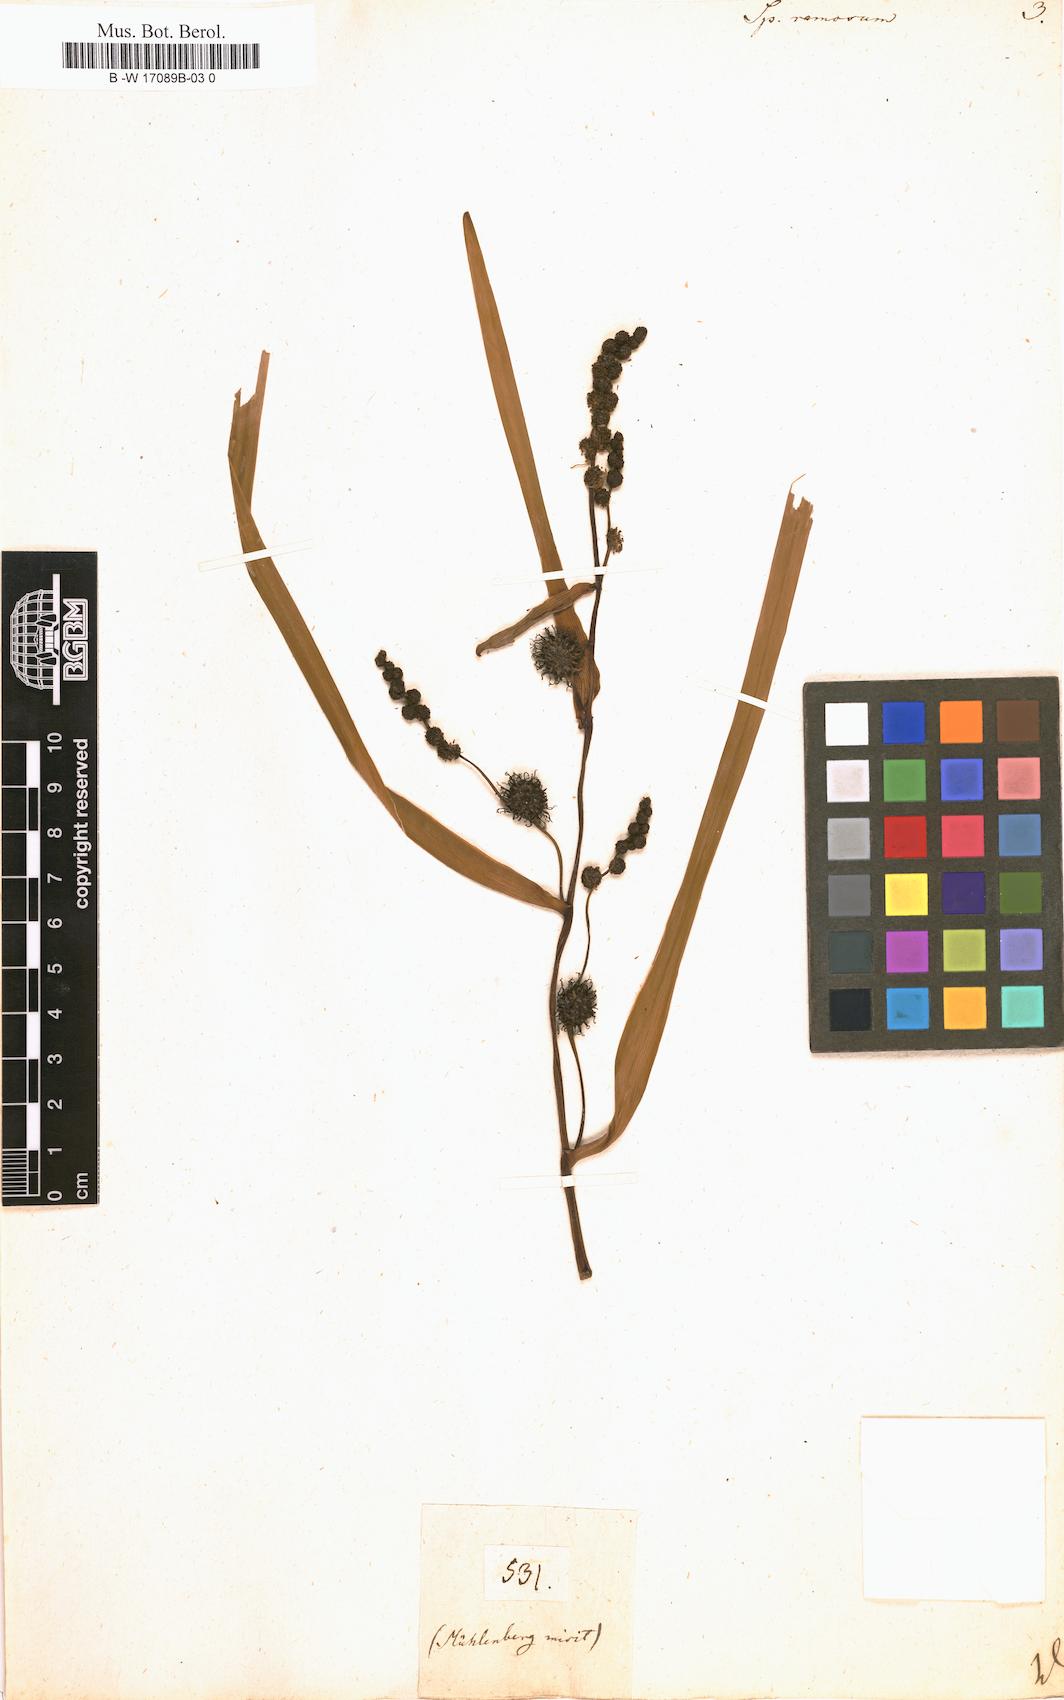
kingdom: Plantae
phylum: Tracheophyta
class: Liliopsida
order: Poales
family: Typhaceae
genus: Sparganium
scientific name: Sparganium erectum
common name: Branched bur-reed
